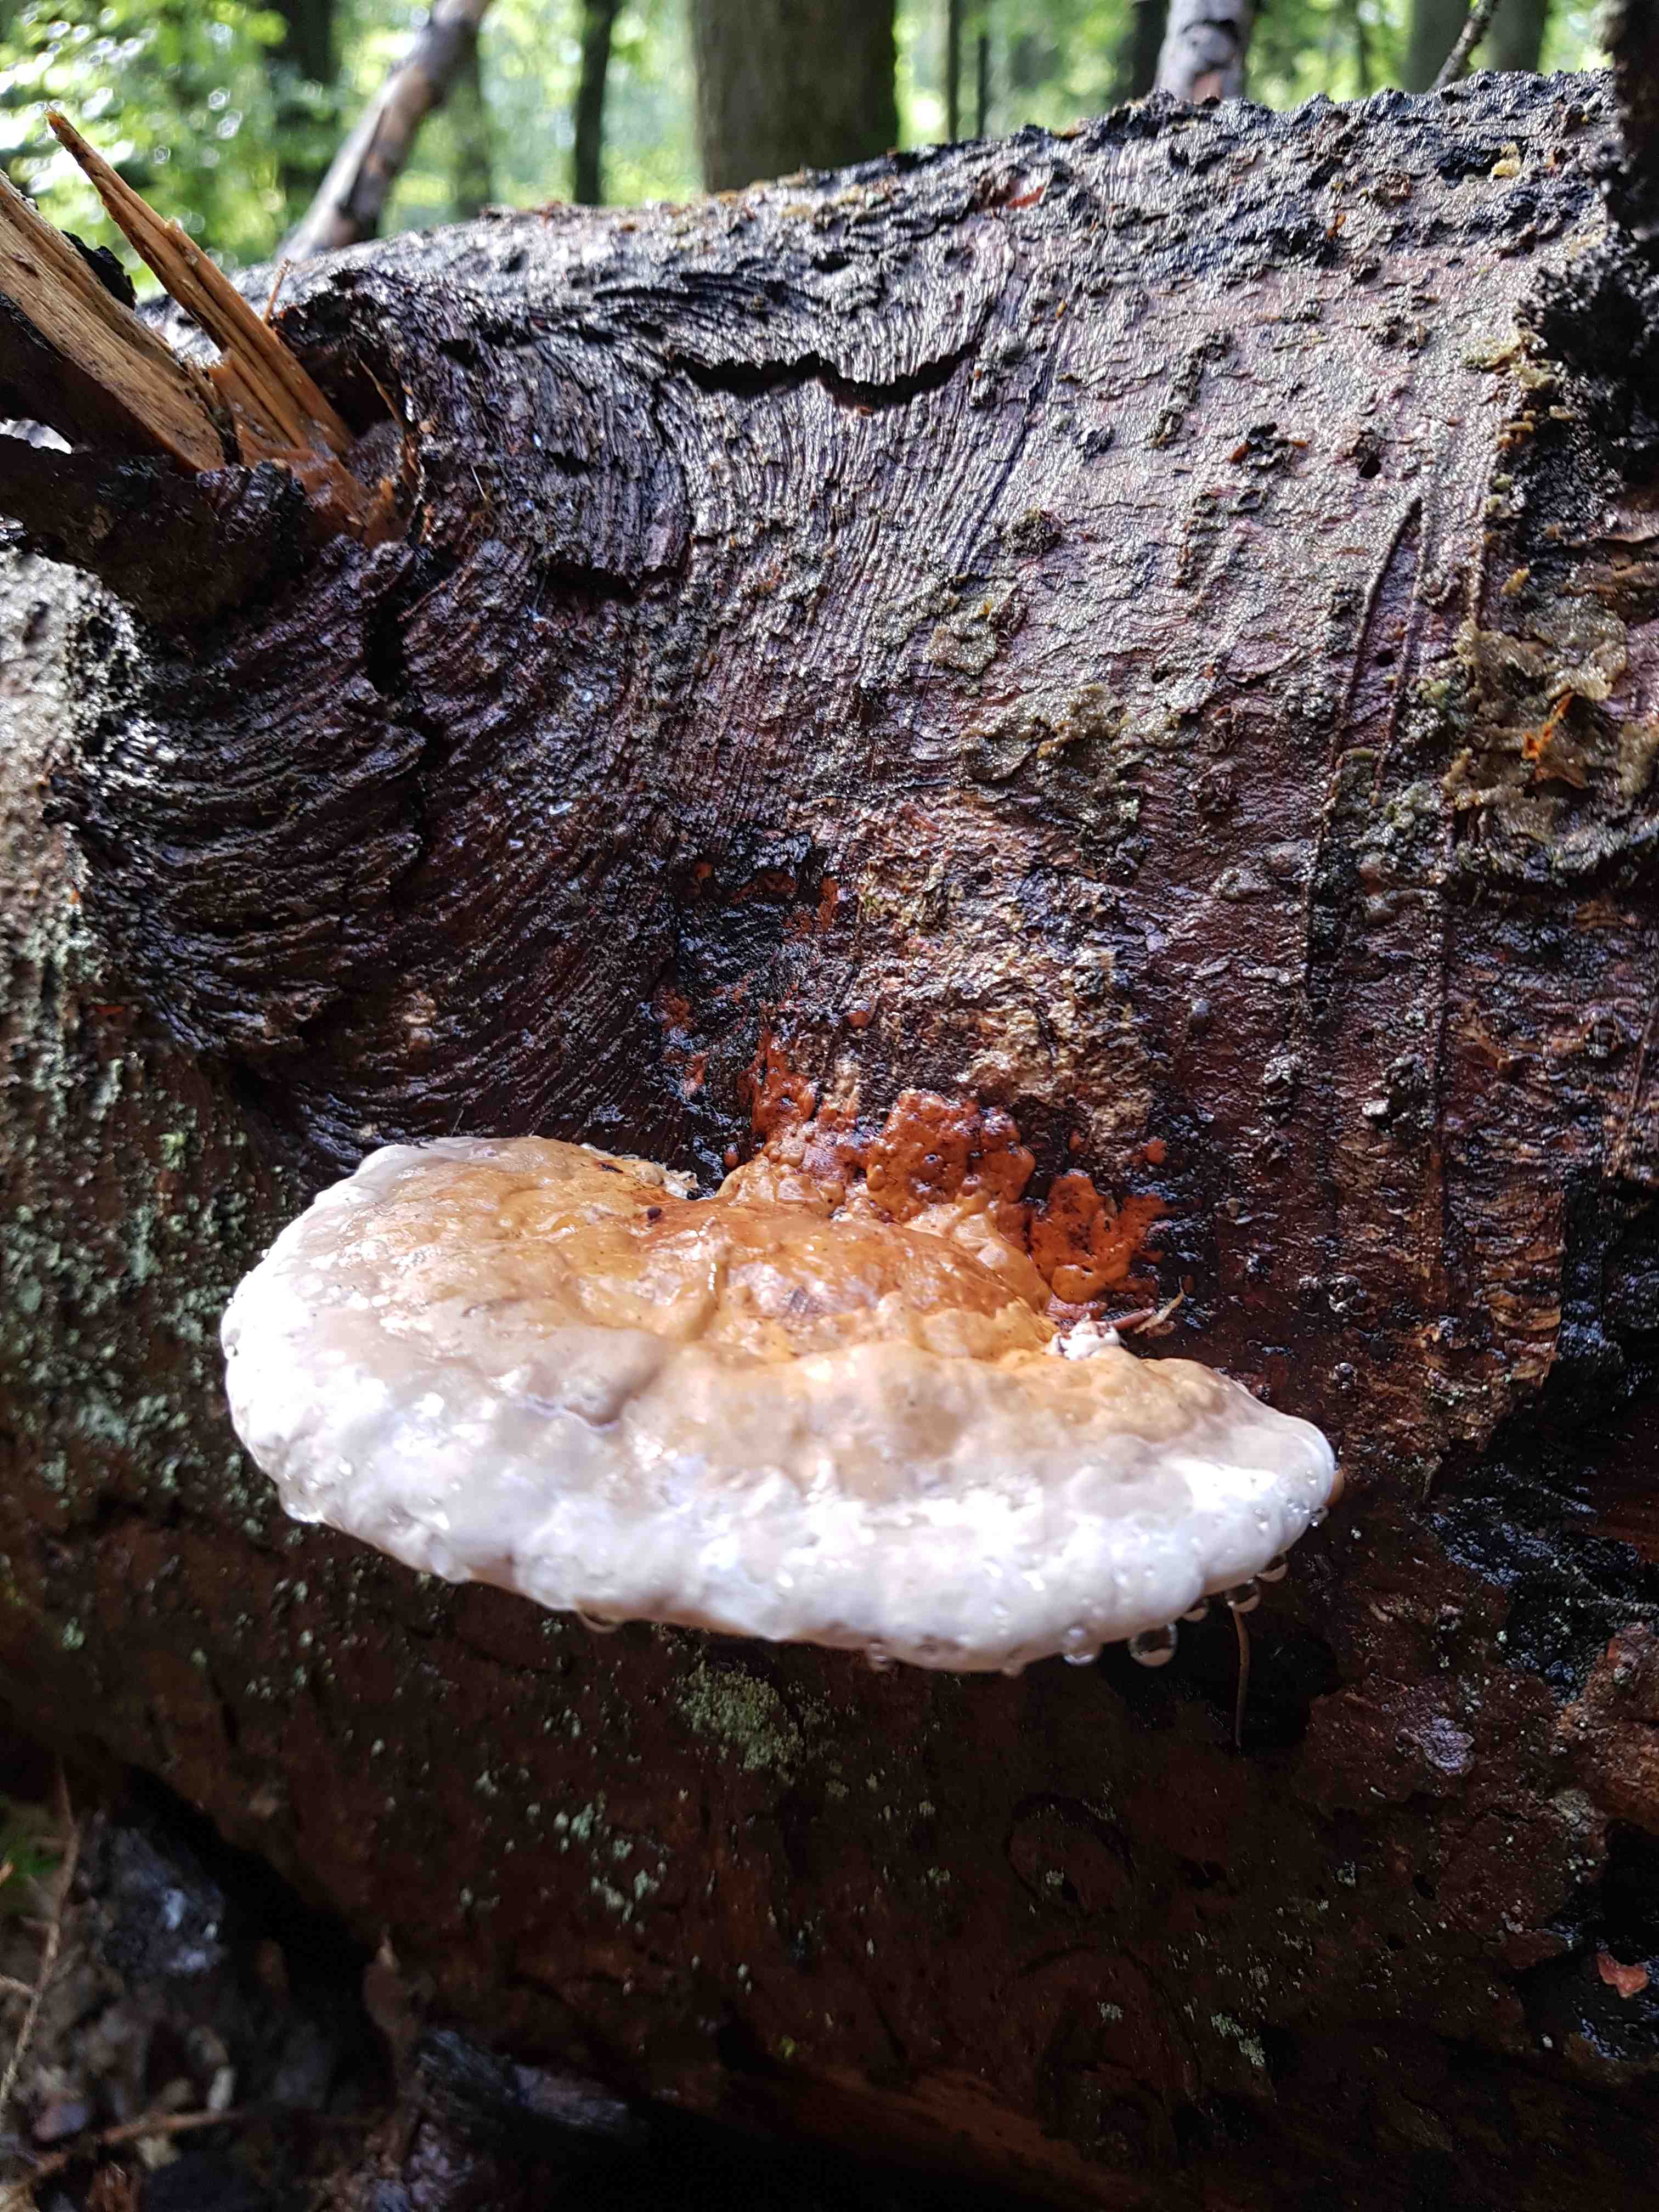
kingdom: Fungi
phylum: Basidiomycota
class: Agaricomycetes
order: Polyporales
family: Fomitopsidaceae
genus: Fomitopsis
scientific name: Fomitopsis pinicola
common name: randbæltet hovporesvamp
